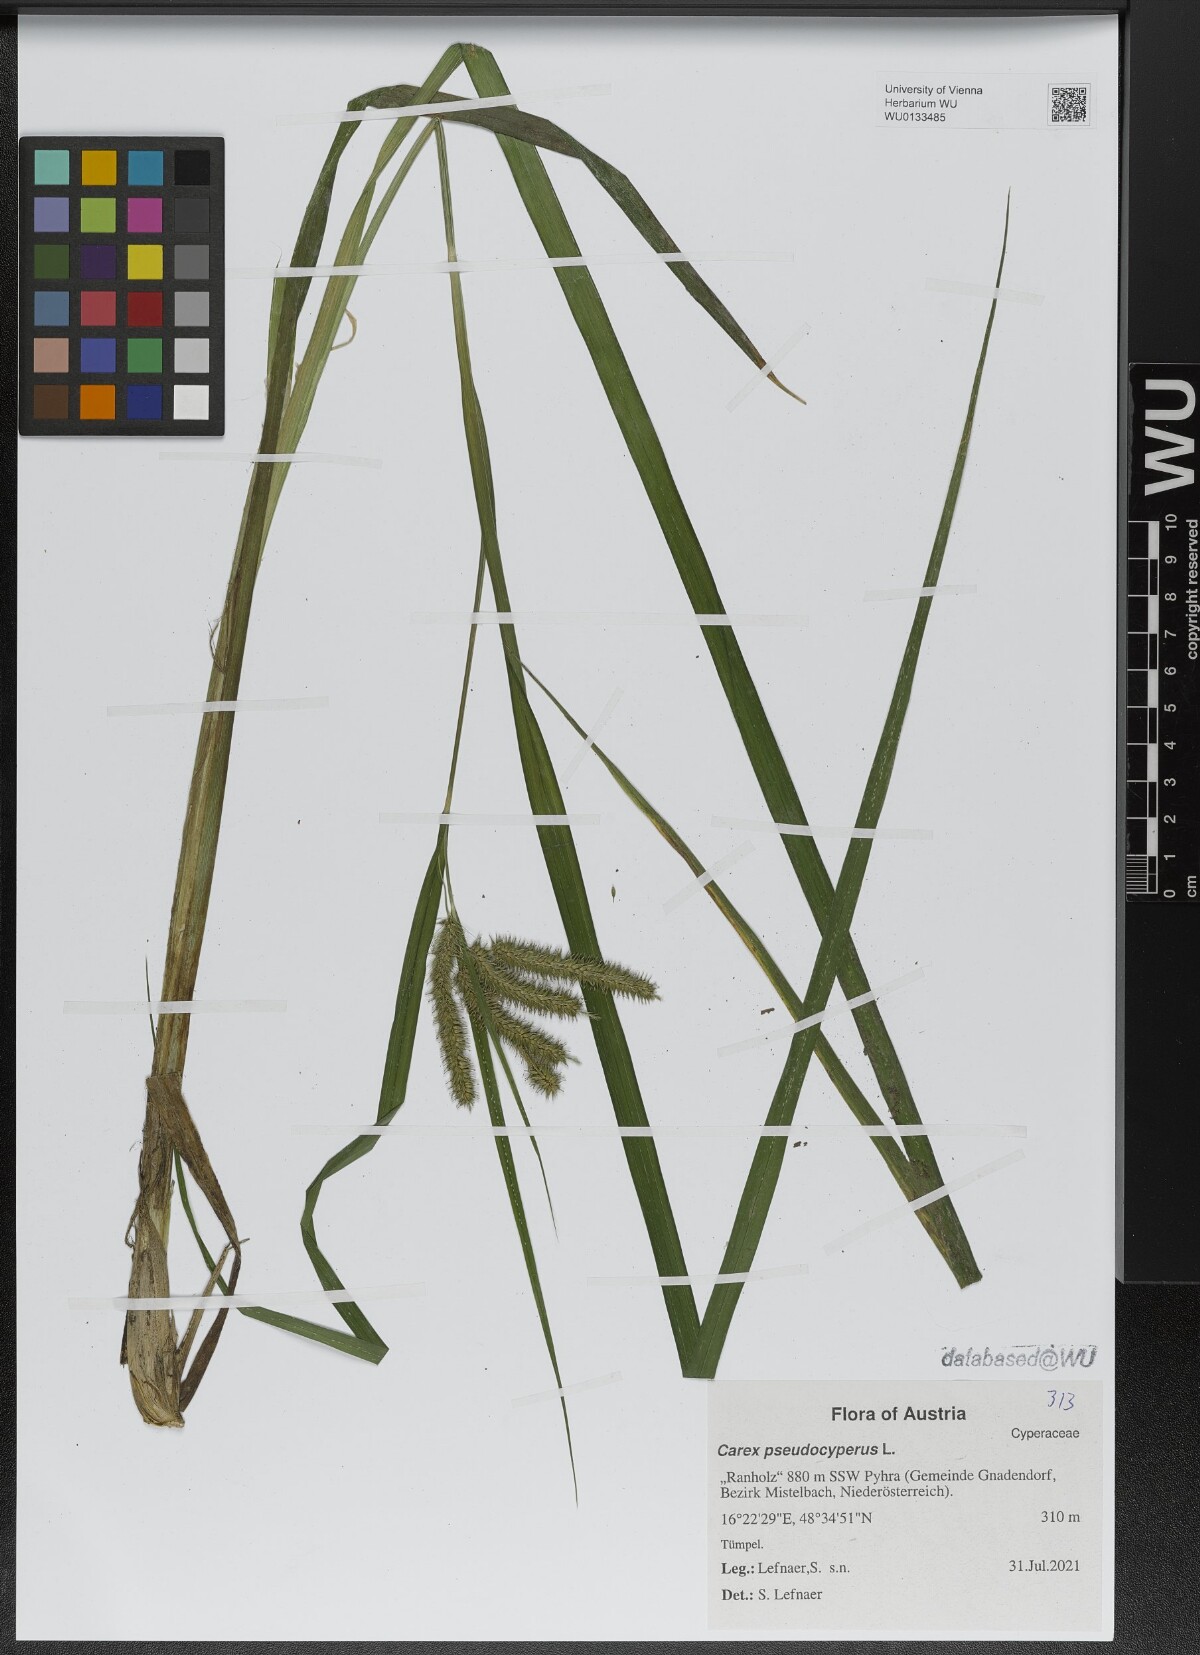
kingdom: Plantae
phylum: Tracheophyta
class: Liliopsida
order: Poales
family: Cyperaceae
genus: Carex
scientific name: Carex pseudocyperus
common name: Cyperus sedge
